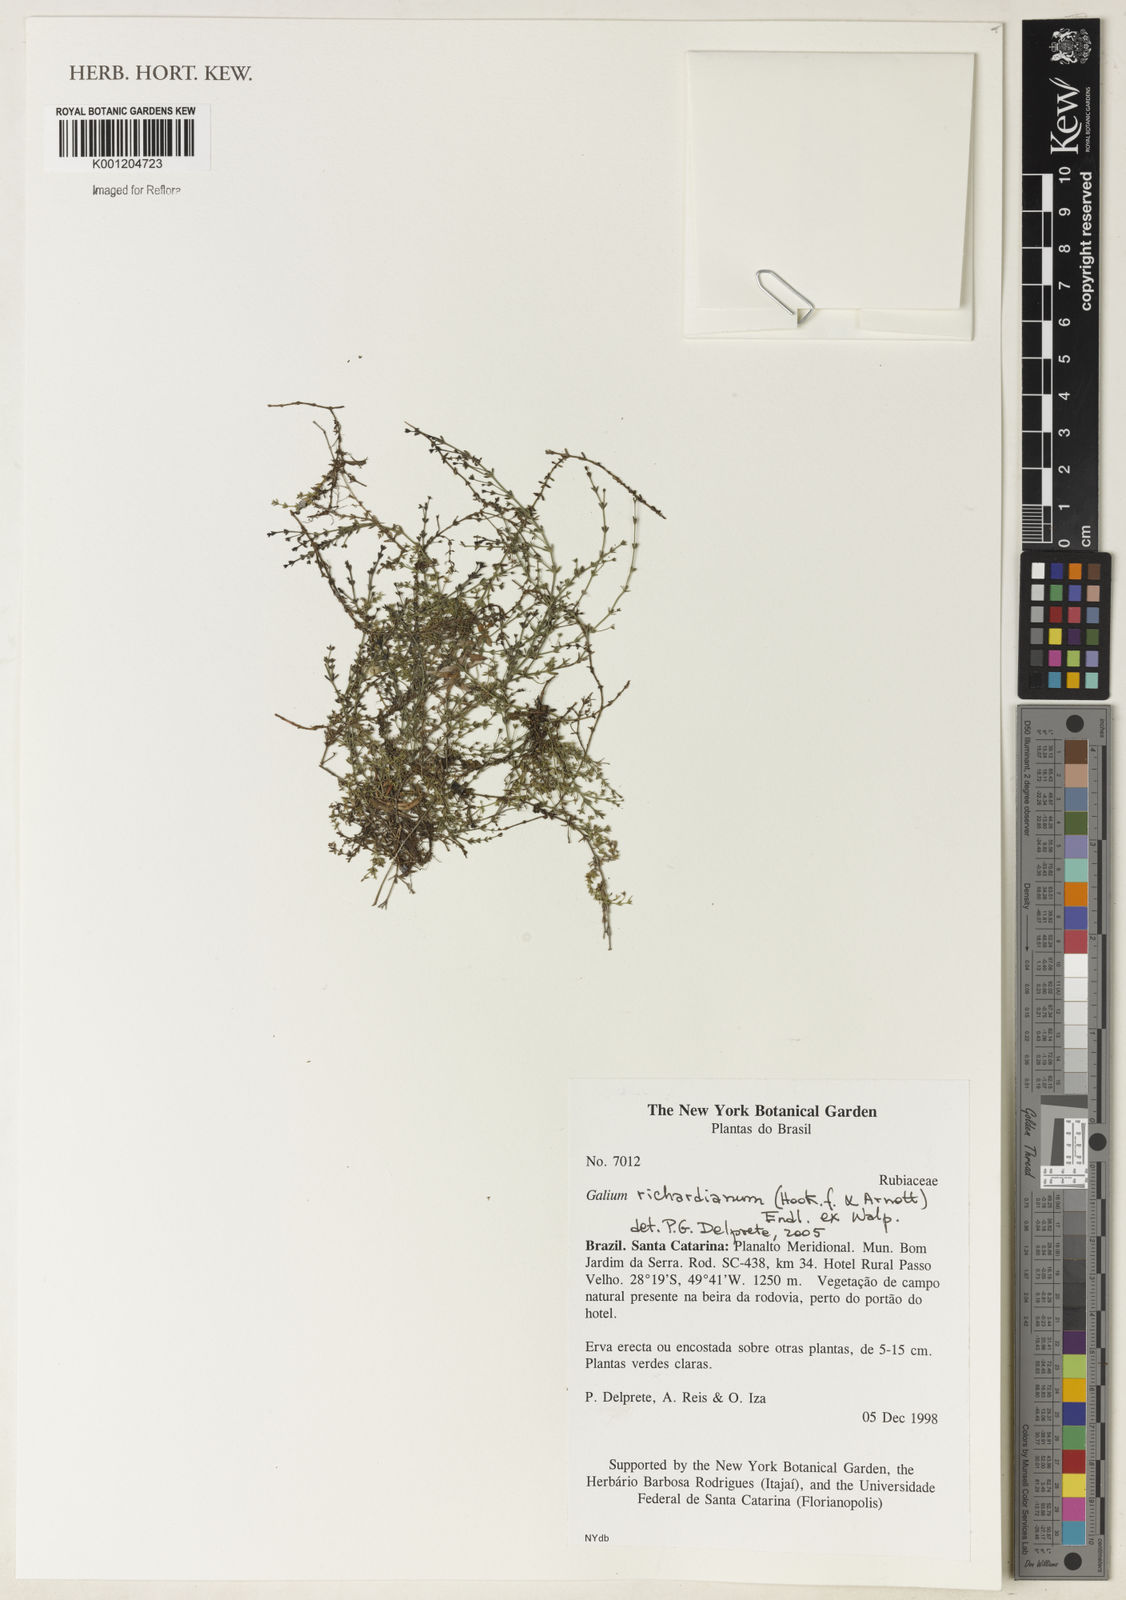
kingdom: Plantae
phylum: Tracheophyta
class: Magnoliopsida
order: Gentianales
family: Rubiaceae
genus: Galium
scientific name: Galium richardianum
